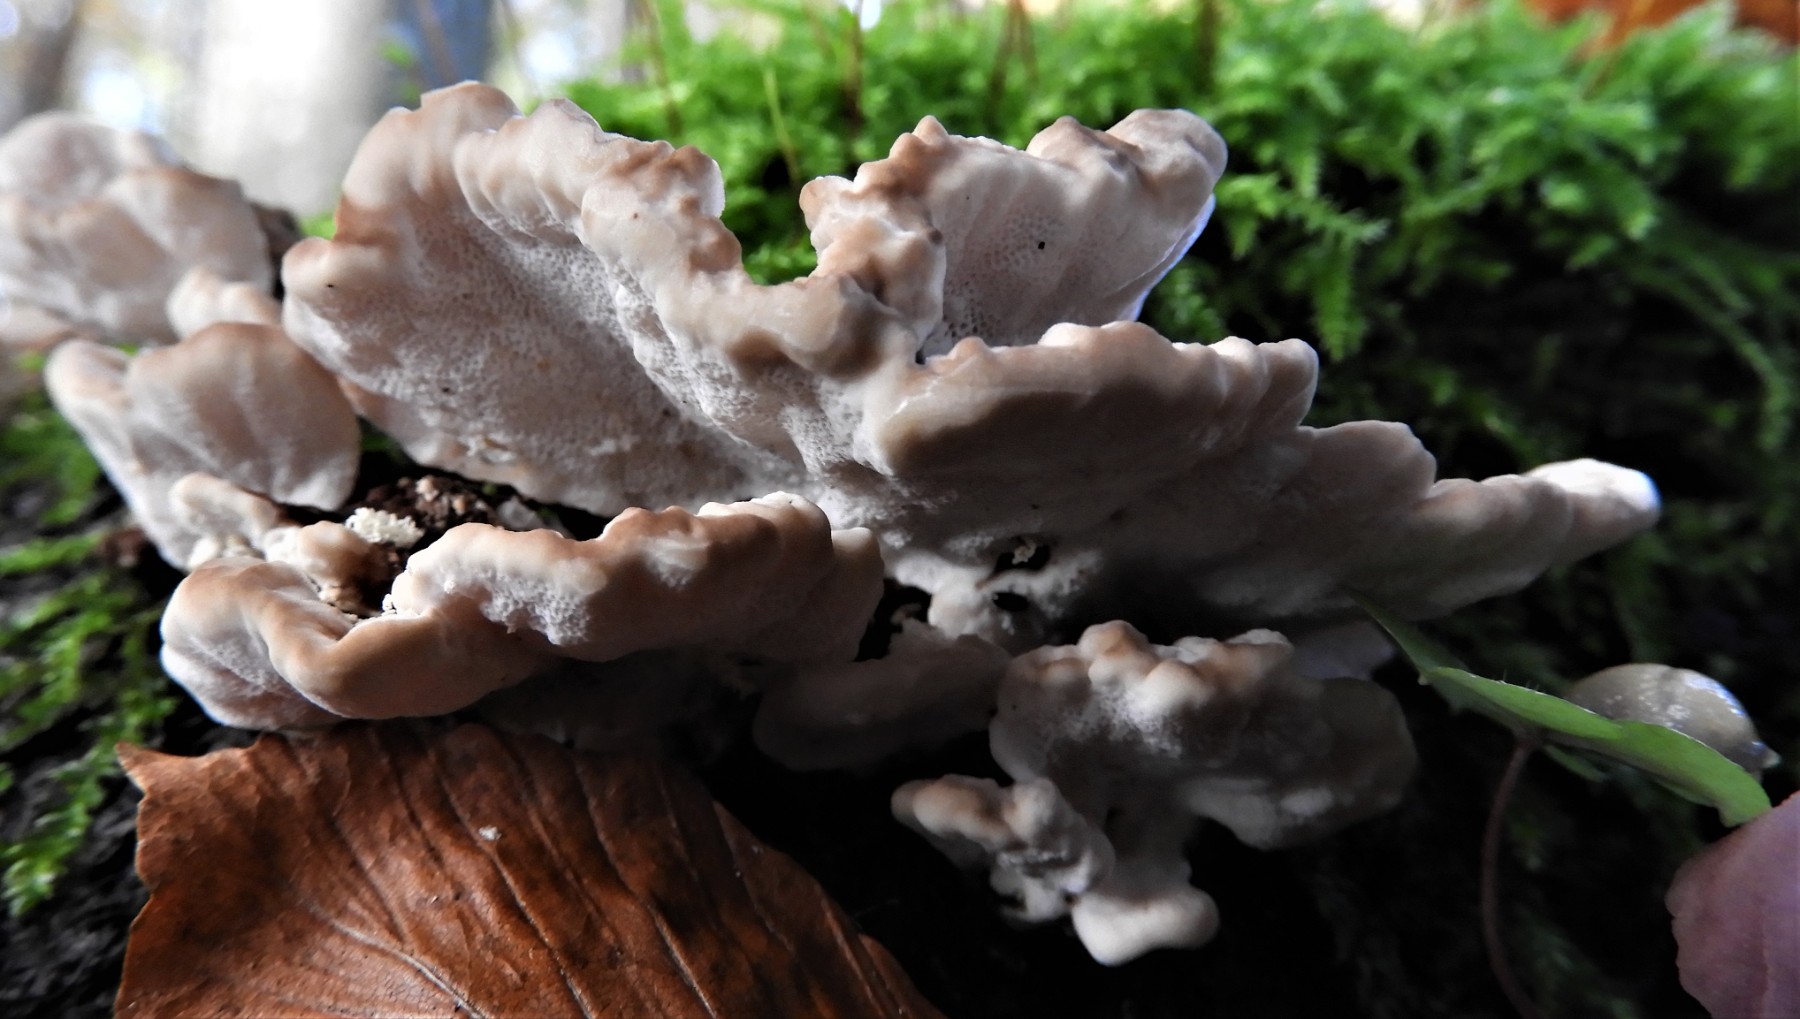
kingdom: Fungi
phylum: Basidiomycota
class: Agaricomycetes
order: Polyporales
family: Polyporaceae
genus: Trametes
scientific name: Trametes versicolor
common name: broget læderporesvamp
